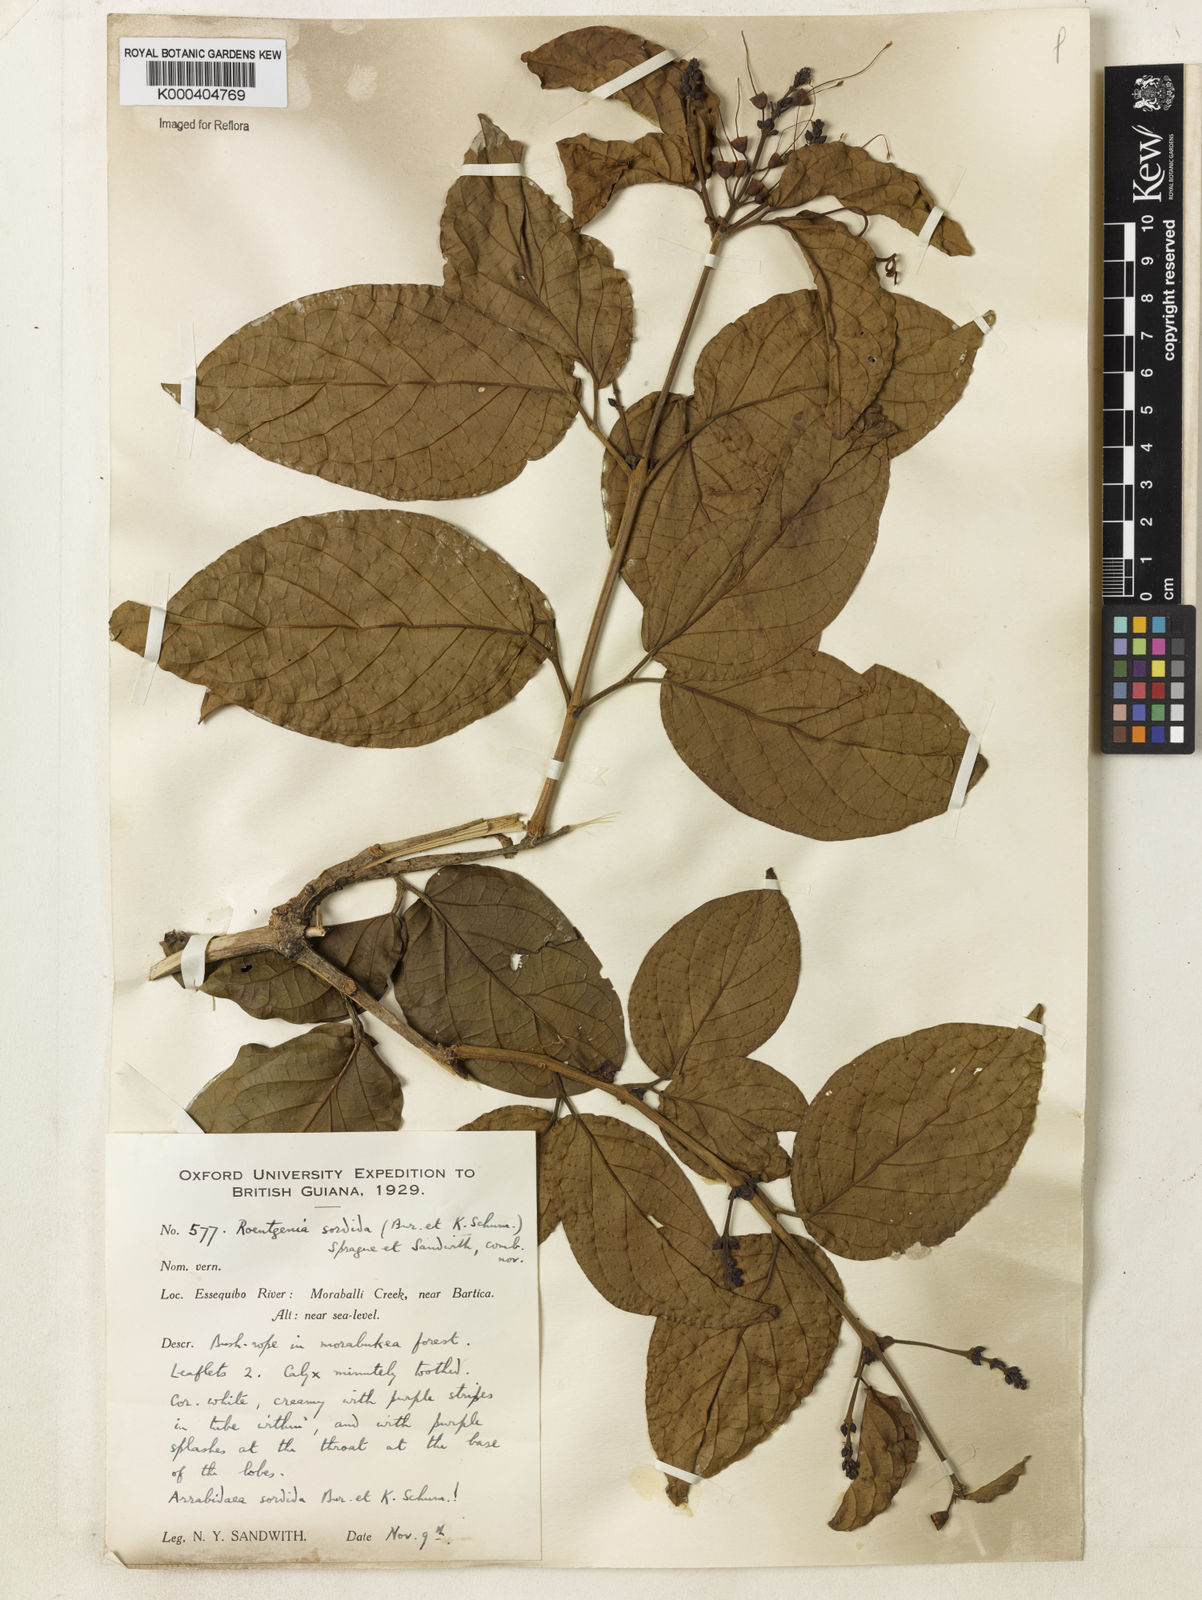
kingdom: Plantae
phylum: Tracheophyta
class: Magnoliopsida
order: Lamiales
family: Bignoniaceae
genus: Bignonia
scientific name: Bignonia sordida
